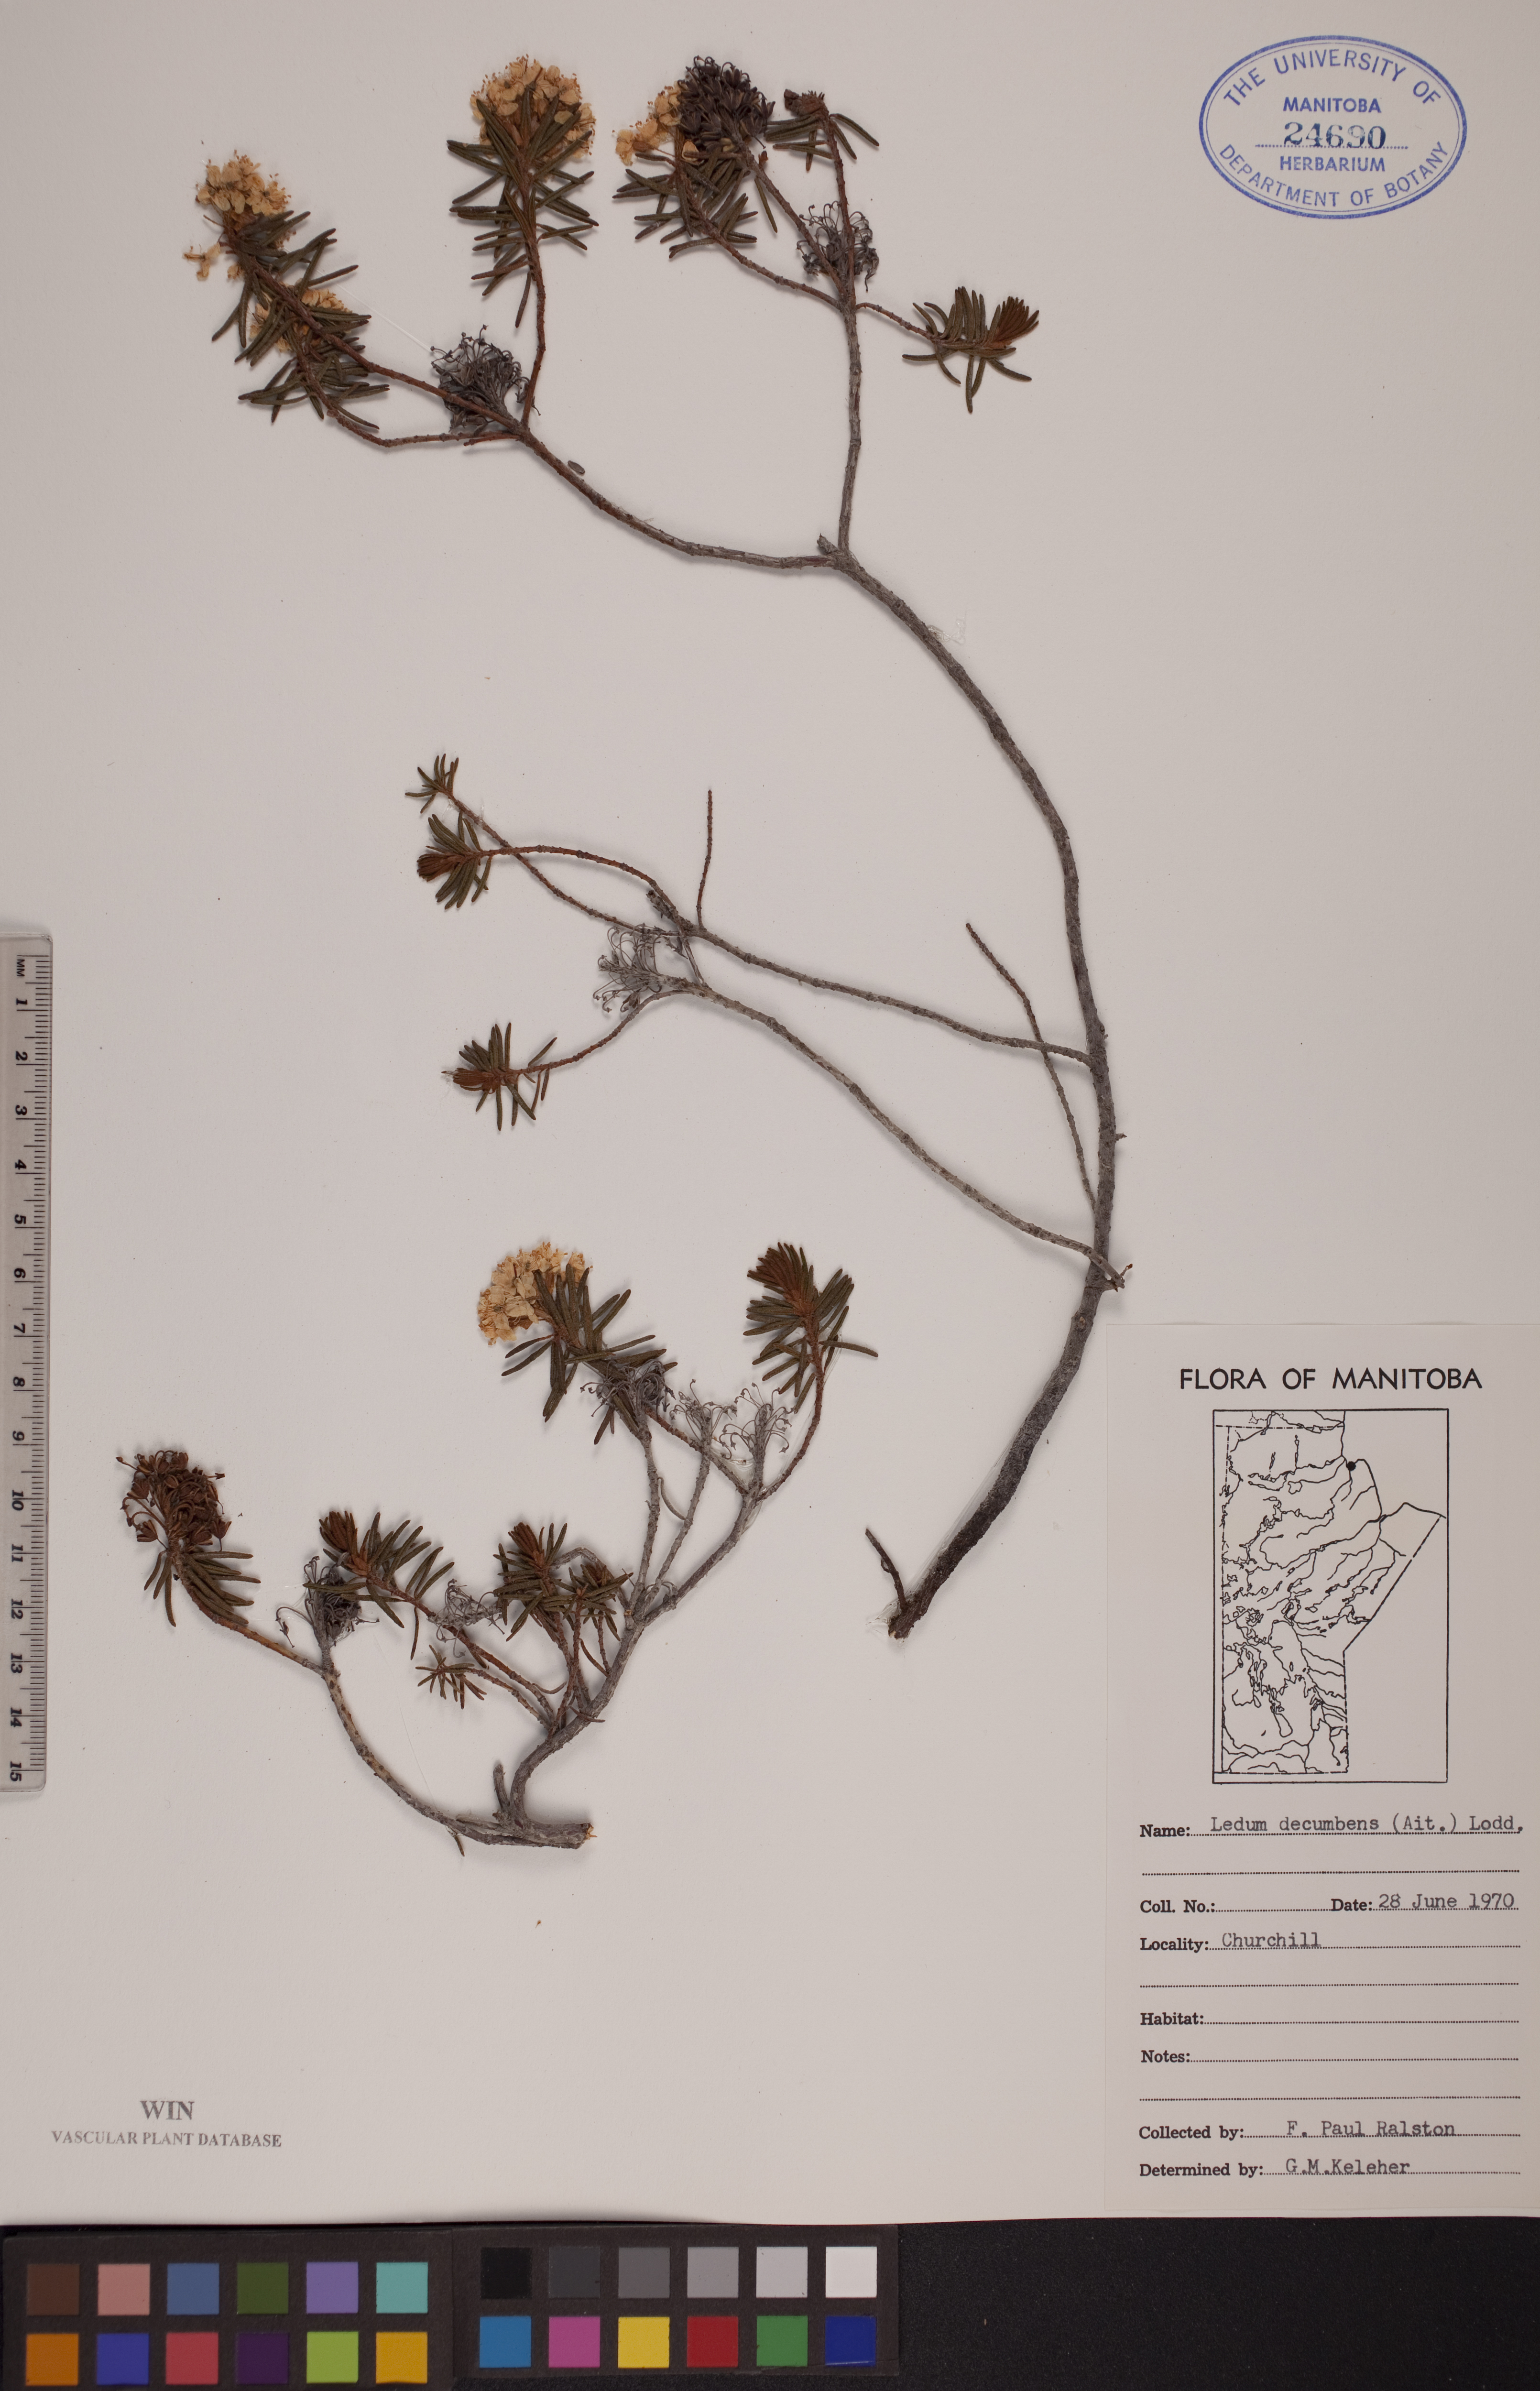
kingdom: Plantae
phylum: Tracheophyta
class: Magnoliopsida
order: Ericales
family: Ericaceae
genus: Rhododendron
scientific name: Rhododendron tomentosum
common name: Marsh labrador tea
